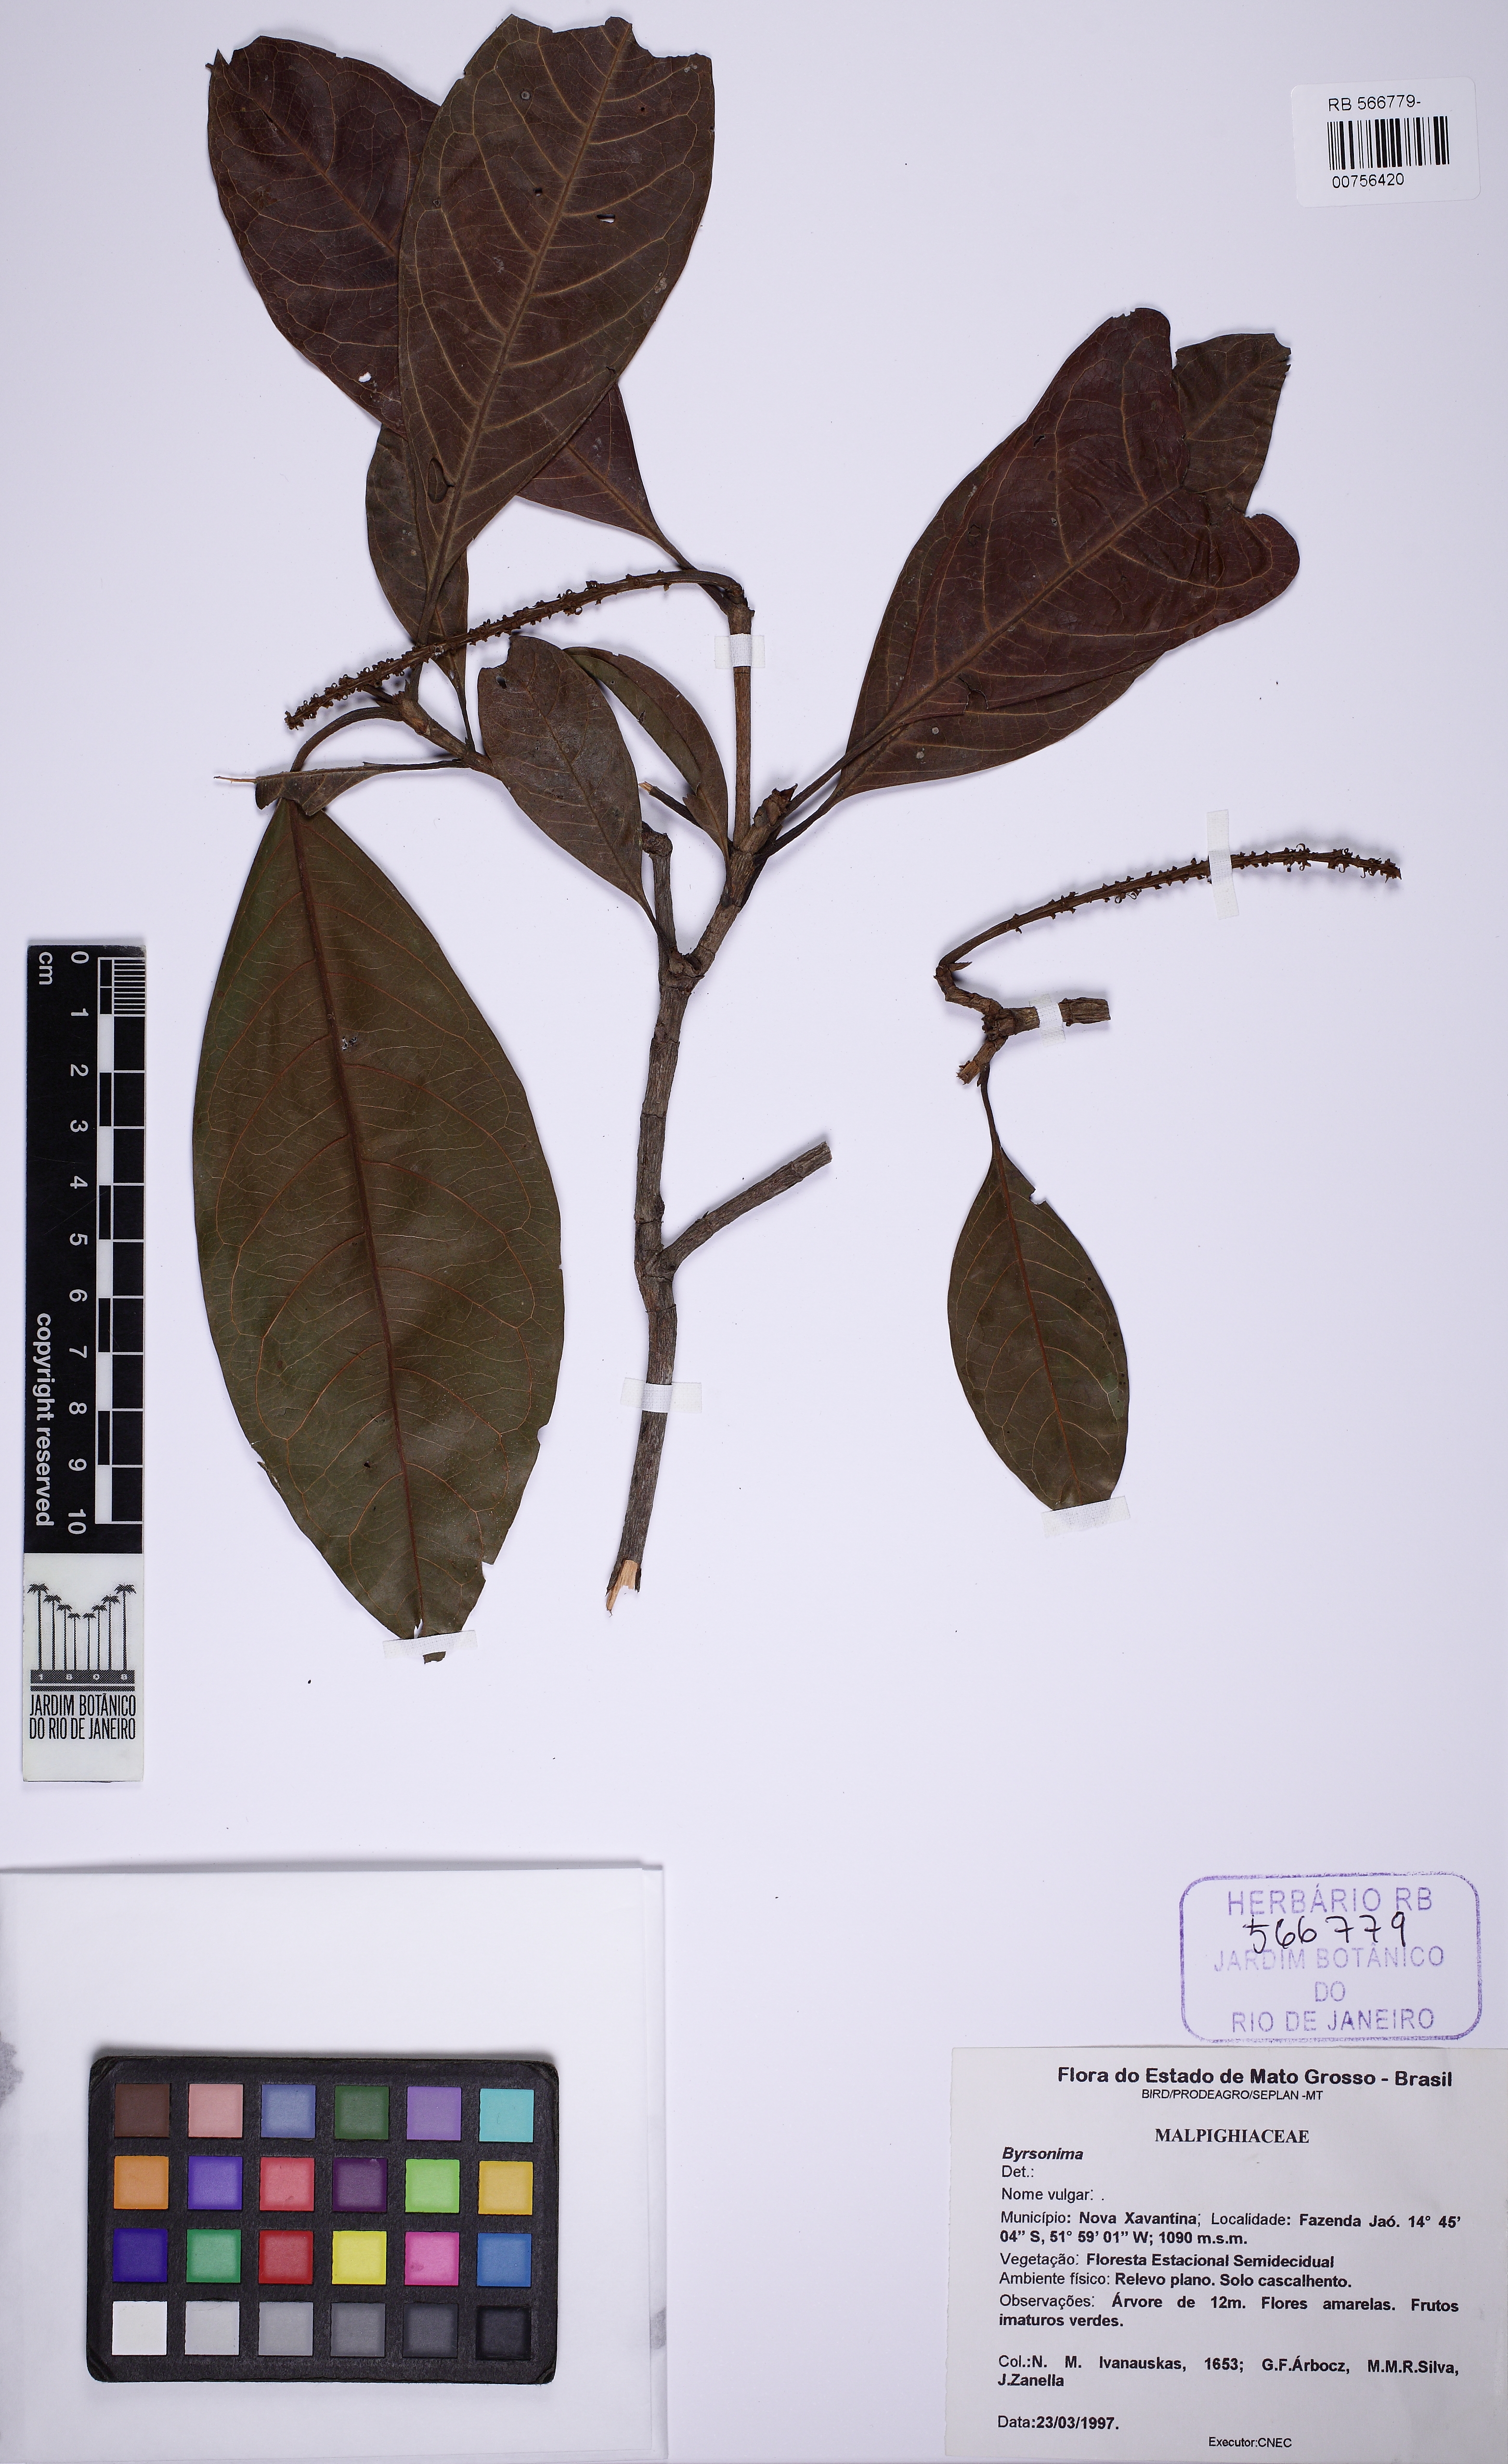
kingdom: Plantae
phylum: Tracheophyta
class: Magnoliopsida
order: Malpighiales
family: Malpighiaceae
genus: Byrsonima
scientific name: Byrsonima
